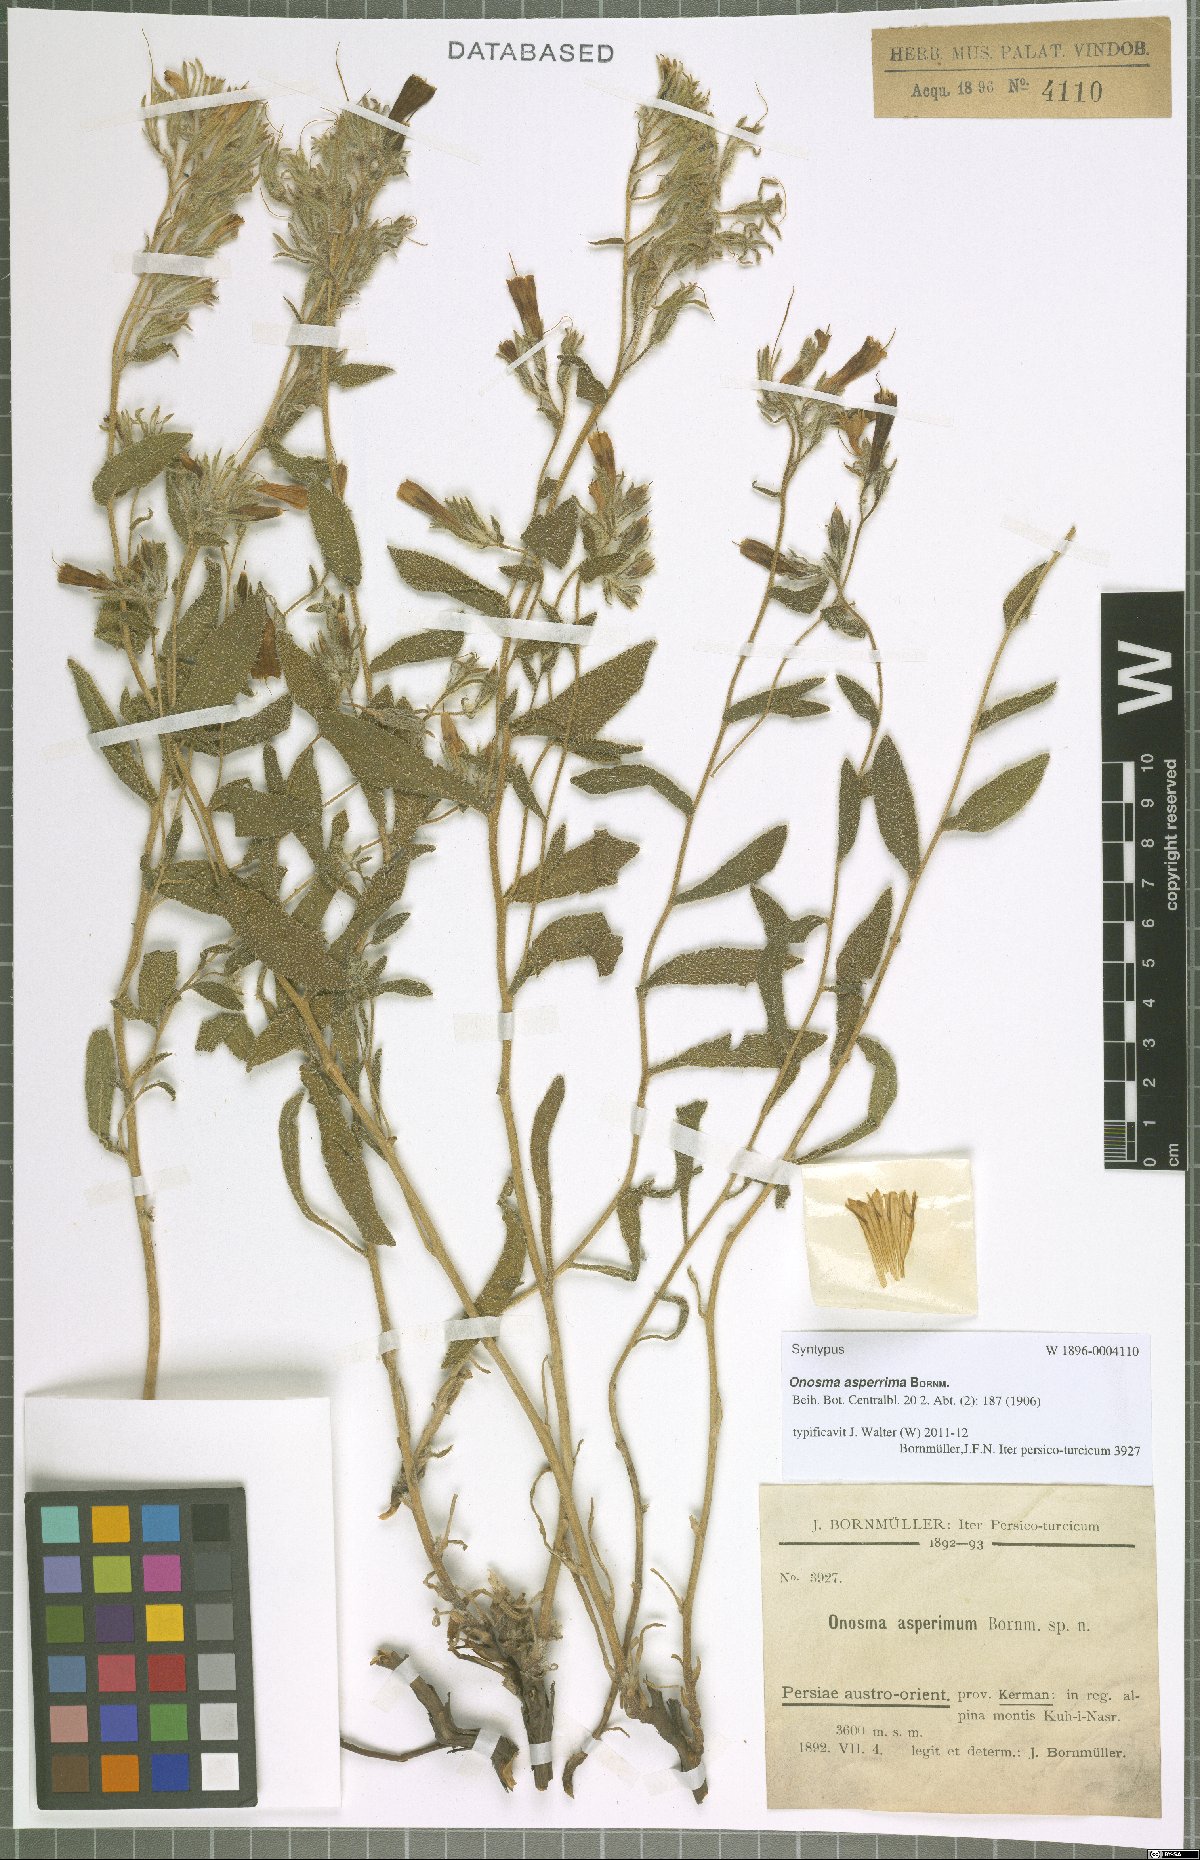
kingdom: Plantae
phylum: Tracheophyta
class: Magnoliopsida
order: Boraginales
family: Boraginaceae
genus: Onosma
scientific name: Onosma asperrima
